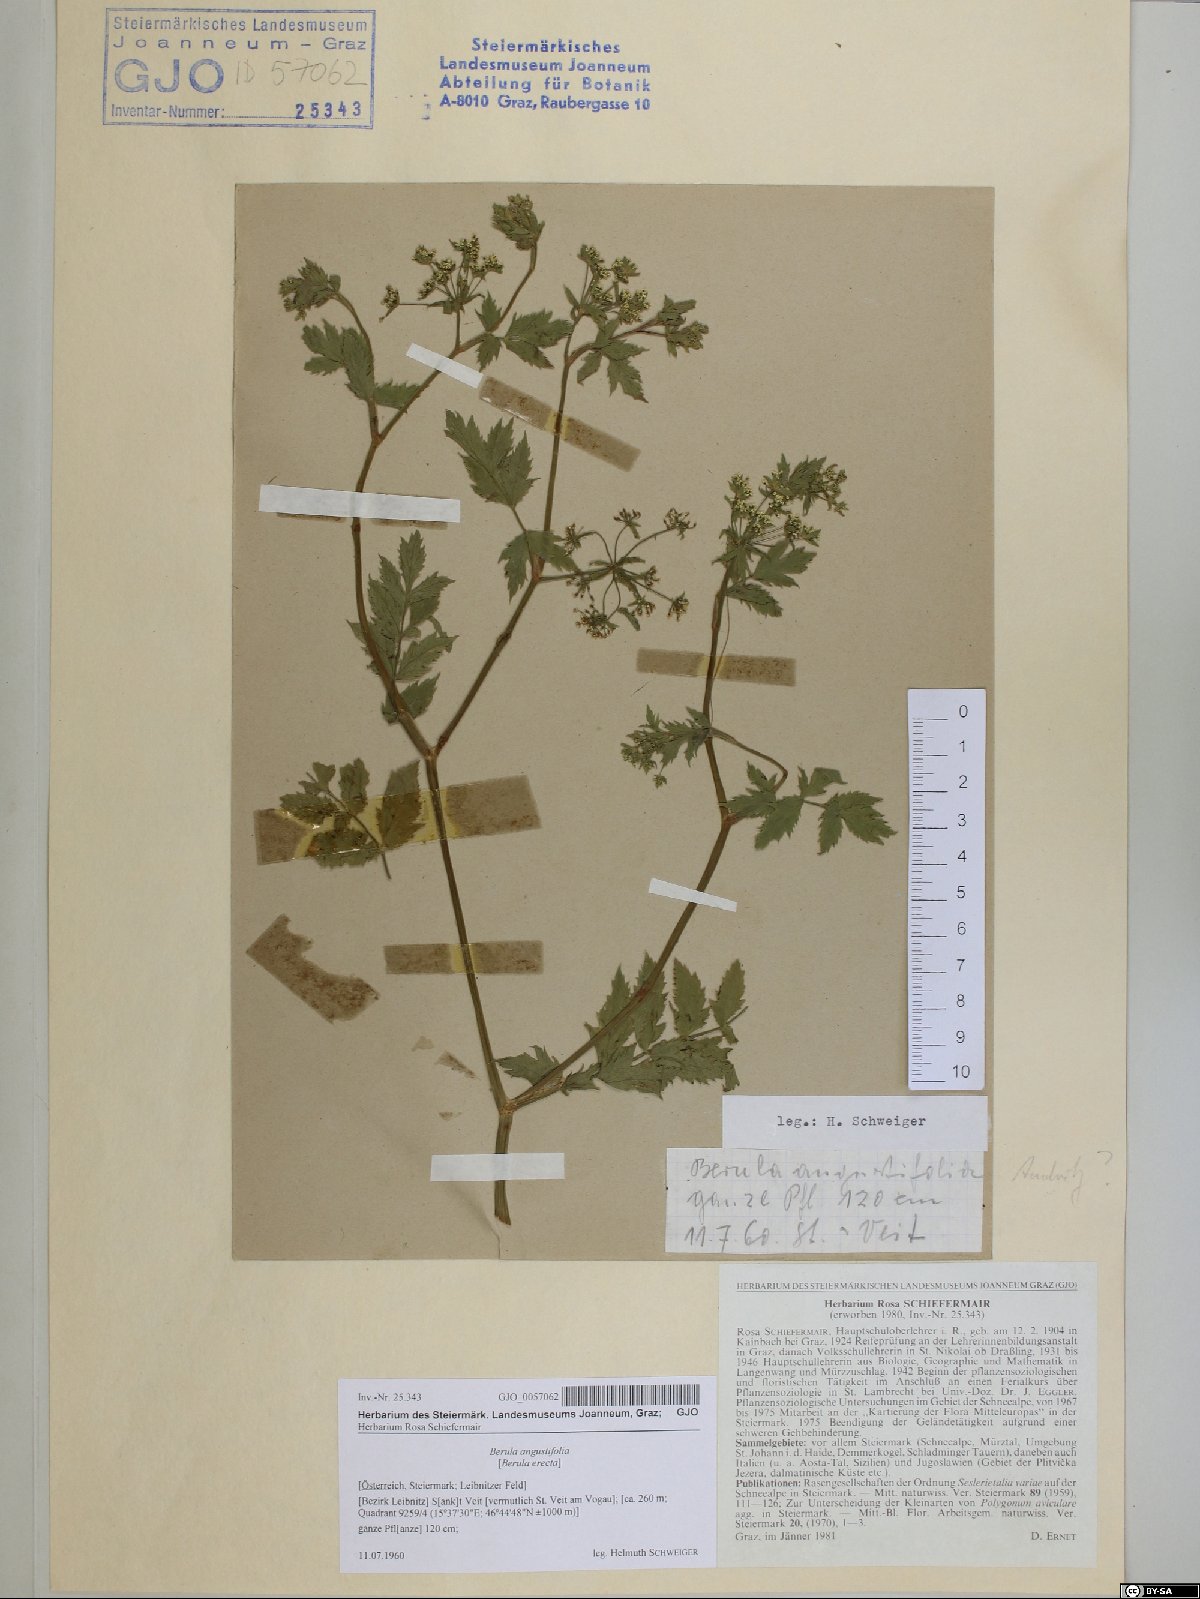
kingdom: Plantae
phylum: Tracheophyta
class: Magnoliopsida
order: Apiales
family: Apiaceae
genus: Berula
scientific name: Berula erecta
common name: Lesser water-parsnip
